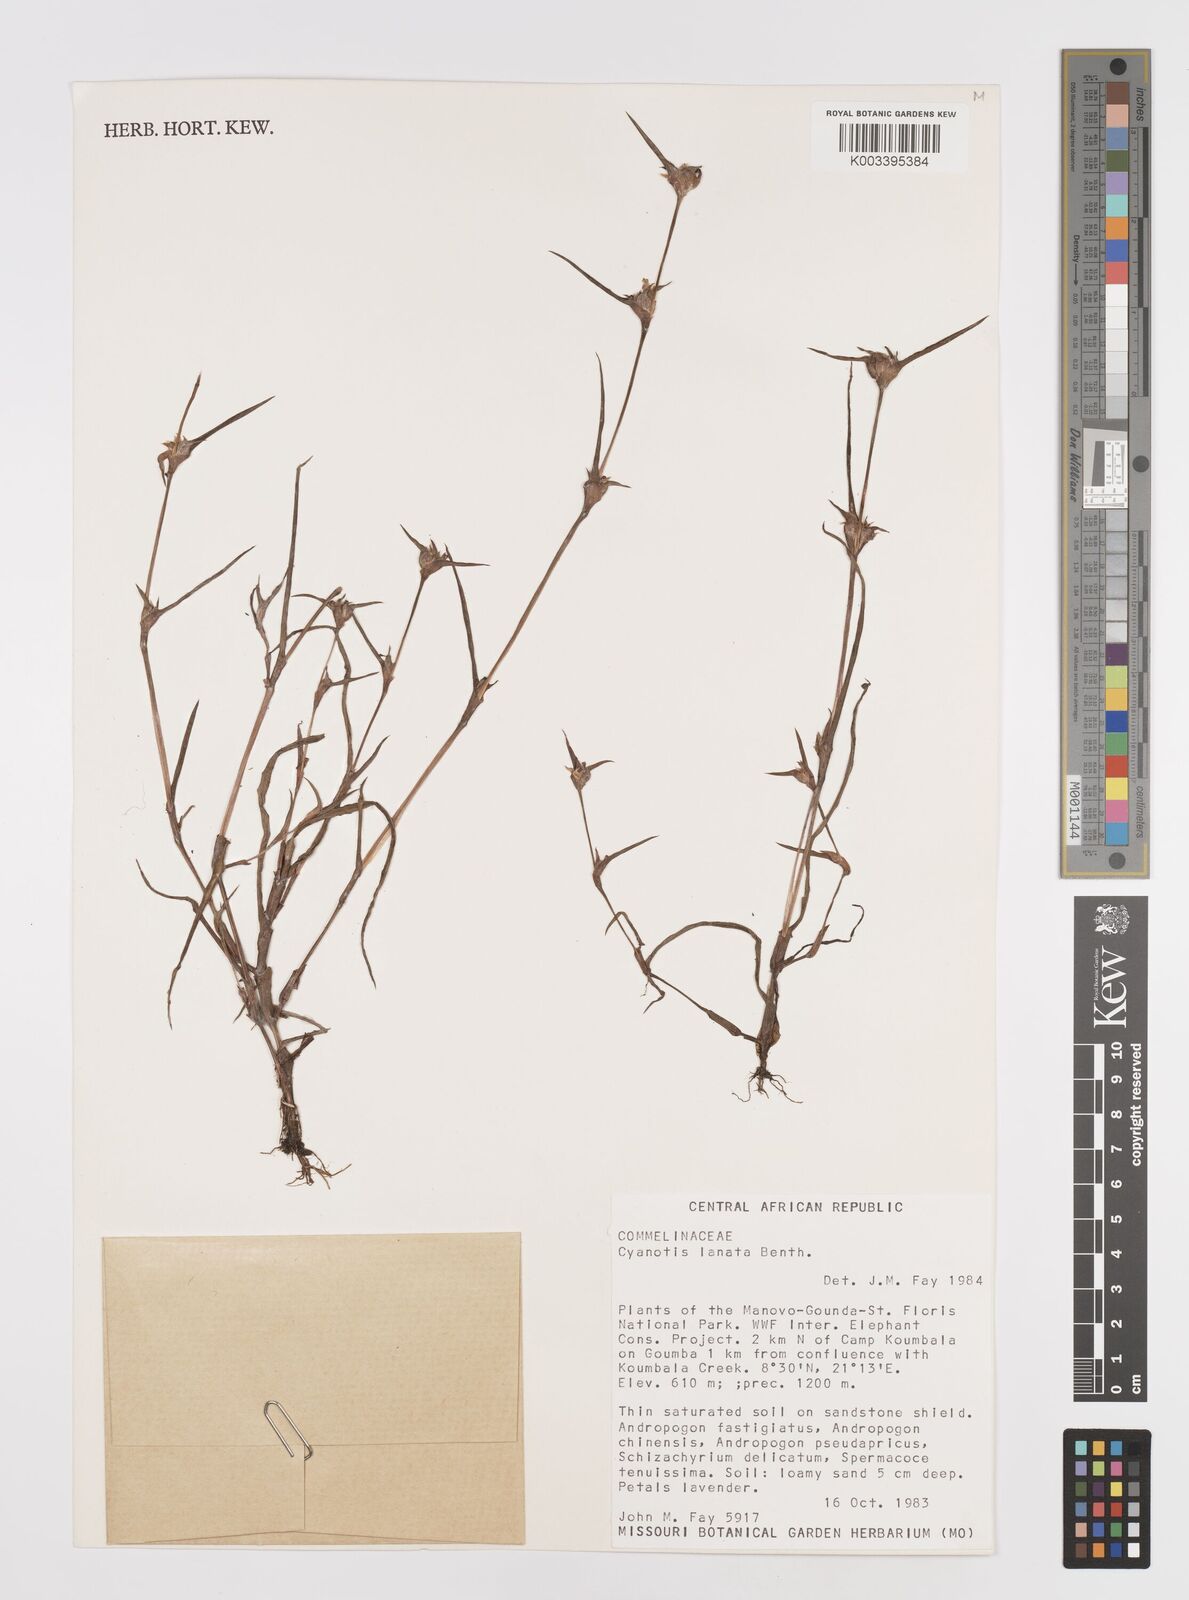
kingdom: Plantae
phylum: Tracheophyta
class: Liliopsida
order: Commelinales
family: Commelinaceae
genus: Cyanotis
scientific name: Cyanotis lanata
